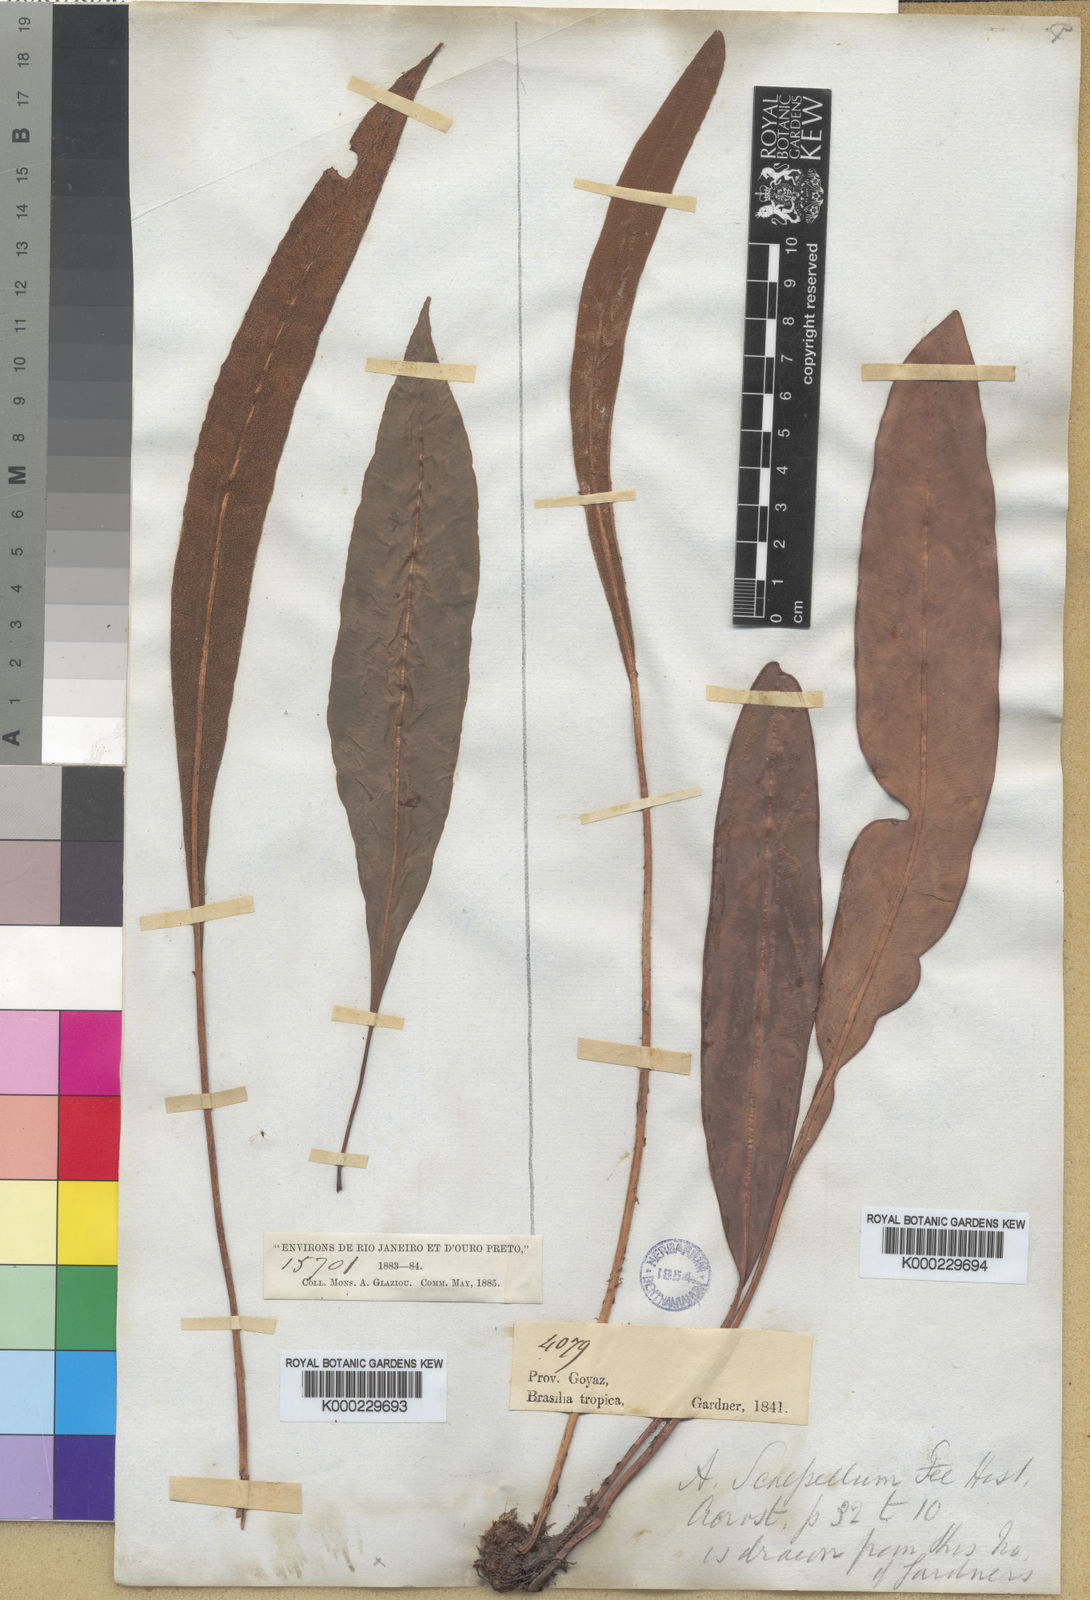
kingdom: Plantae
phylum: Tracheophyta
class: Polypodiopsida
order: Polypodiales
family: Dryopteridaceae
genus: Elaphoglossum
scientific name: Elaphoglossum sartorii
